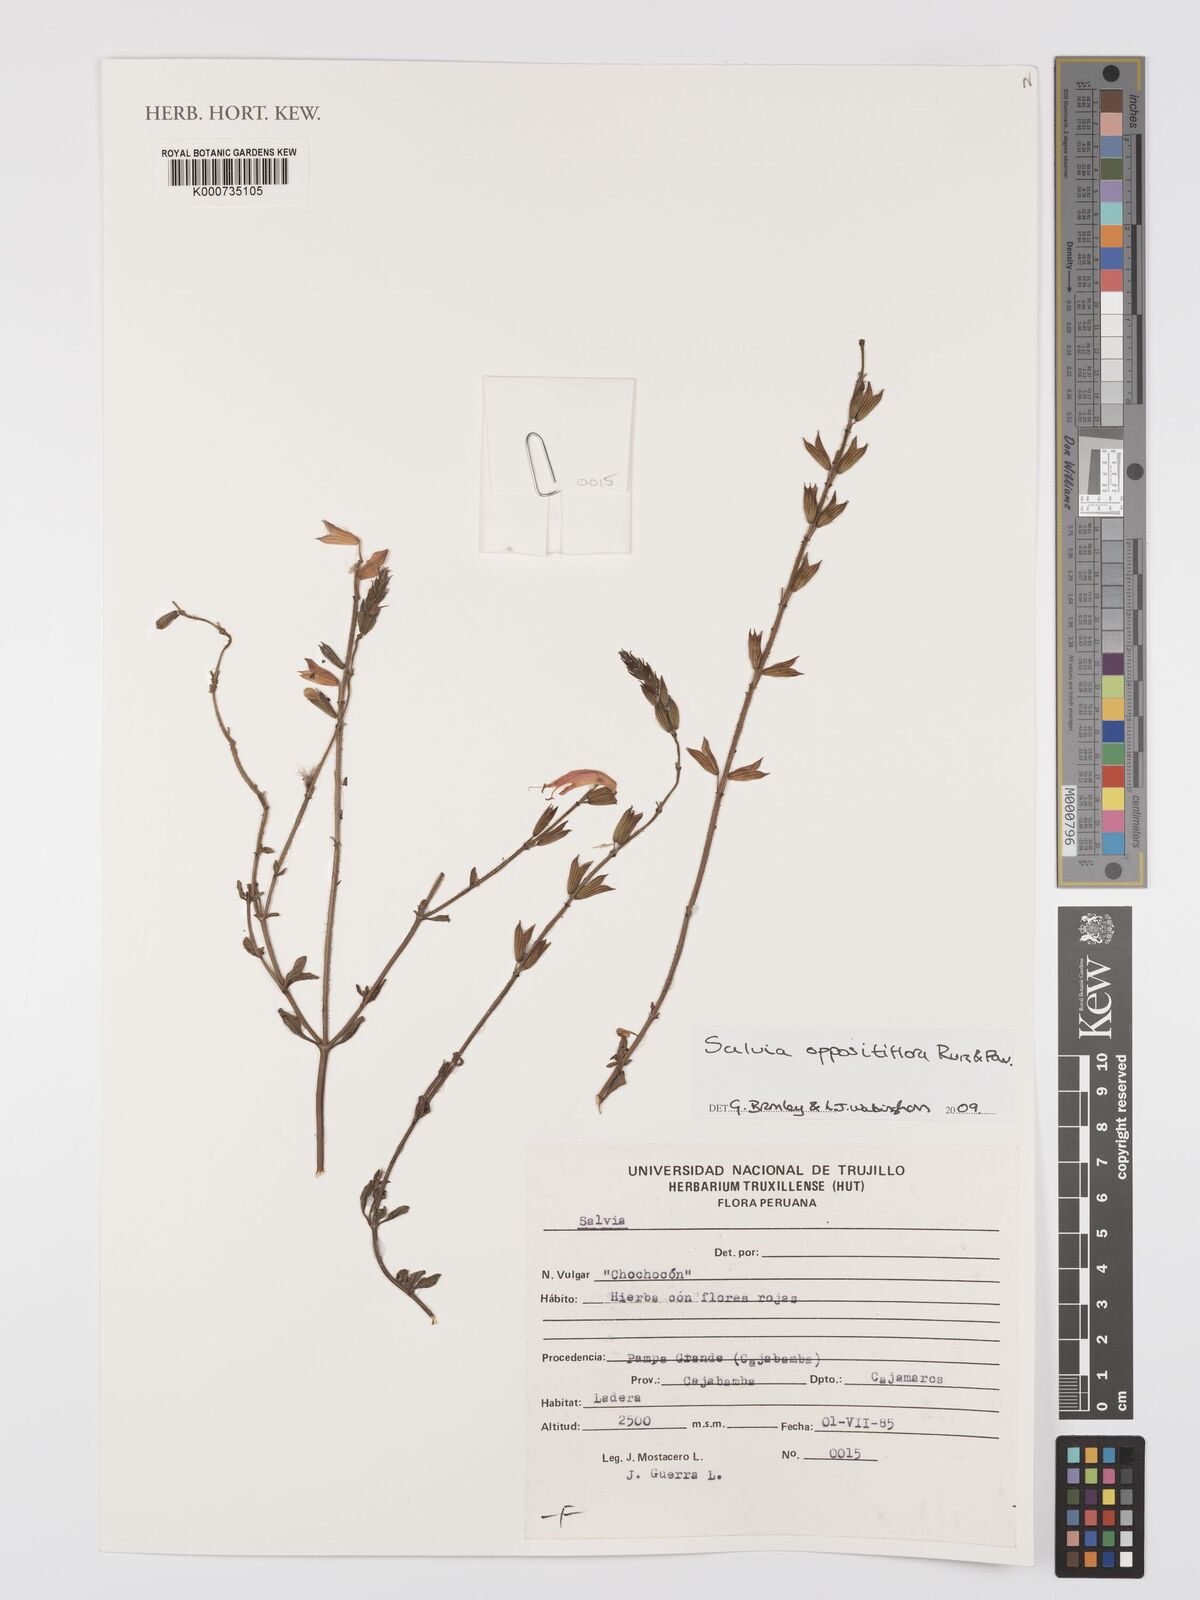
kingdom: Plantae
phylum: Tracheophyta
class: Magnoliopsida
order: Lamiales
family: Lamiaceae
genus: Salvia
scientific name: Salvia oppositiflora
